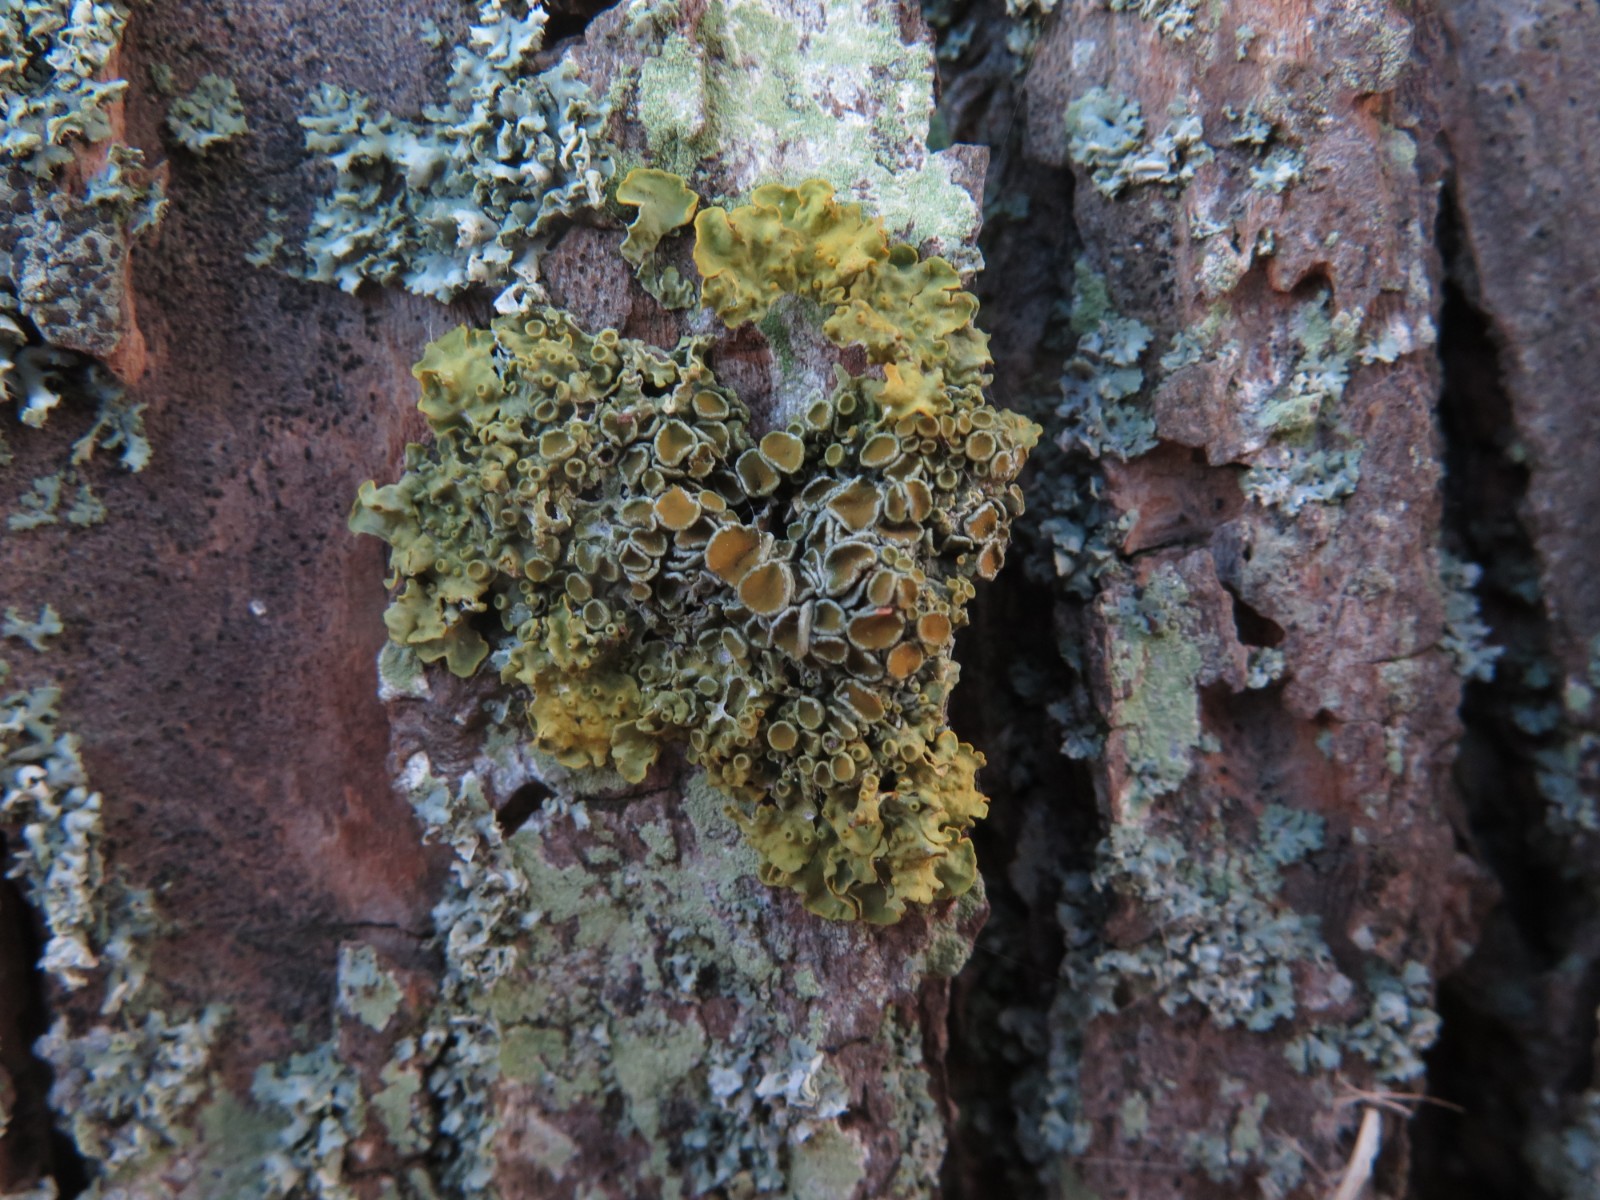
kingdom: Fungi
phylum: Ascomycota
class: Lecanoromycetes
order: Teloschistales
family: Teloschistaceae
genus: Xanthoria
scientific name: Xanthoria parietina
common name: almindelig væggelav
